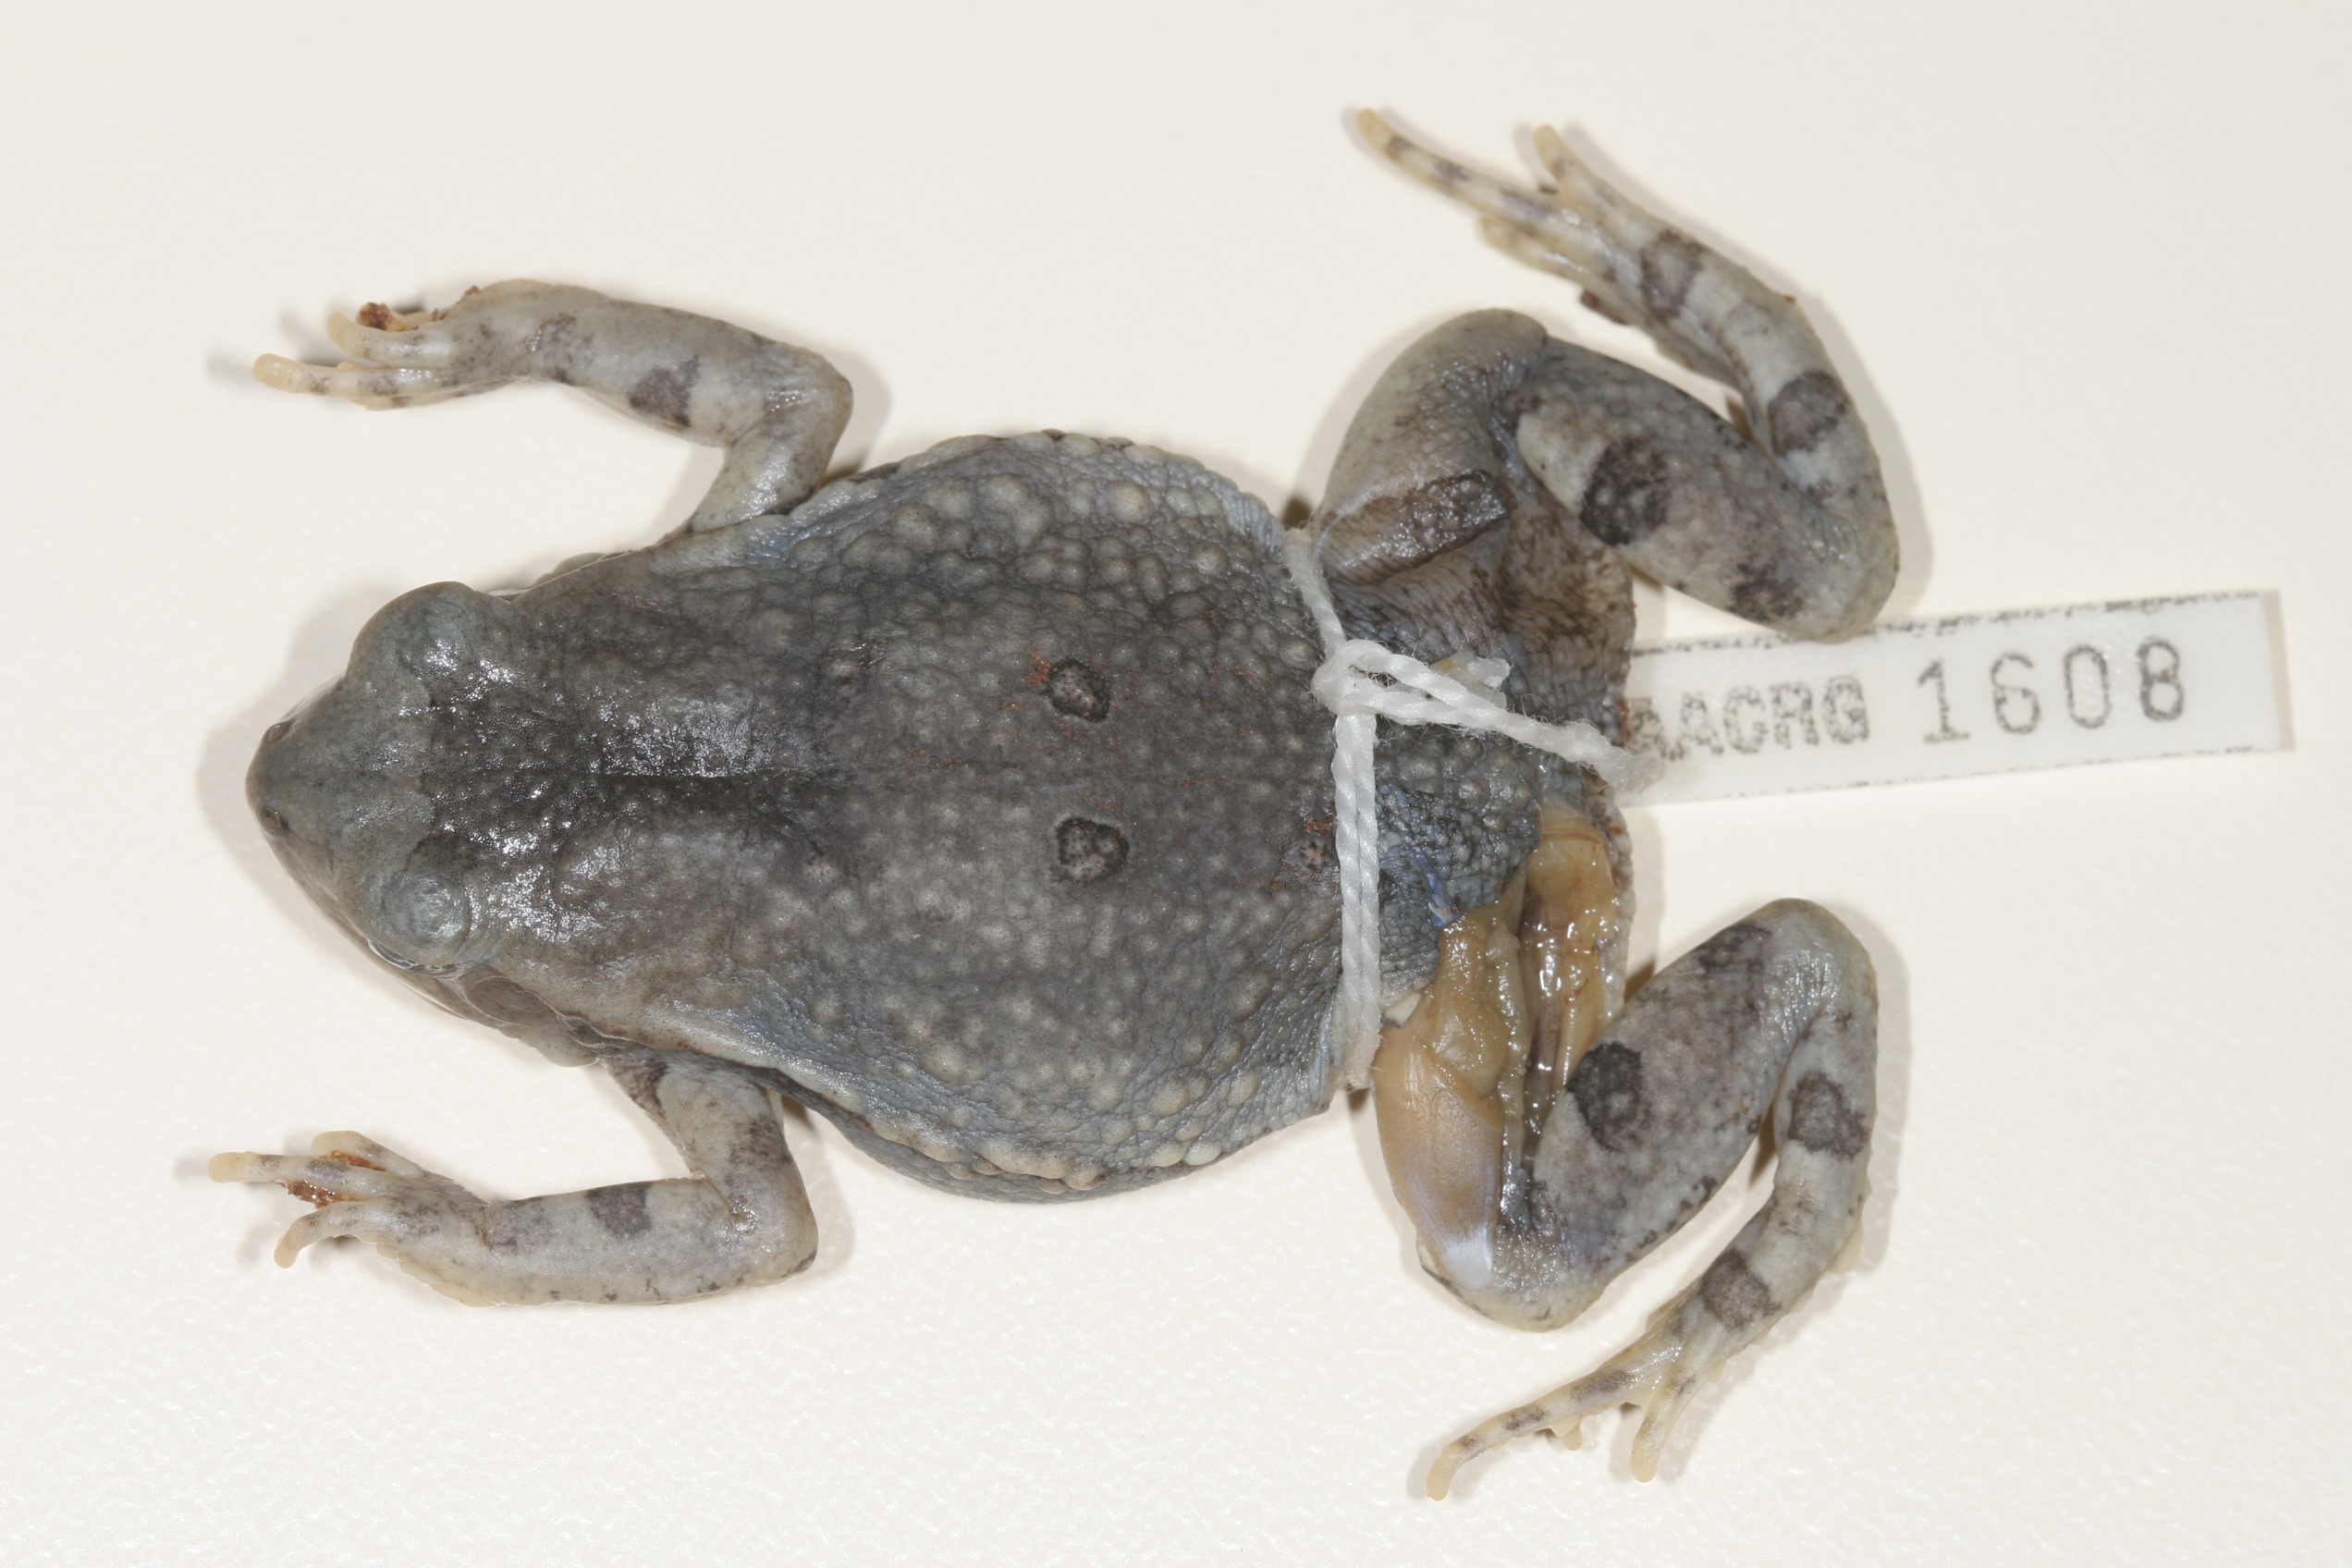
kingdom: Animalia
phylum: Chordata
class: Amphibia
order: Anura
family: Bufonidae
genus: Schismaderma
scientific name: Schismaderma carens
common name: African split-skin toad
